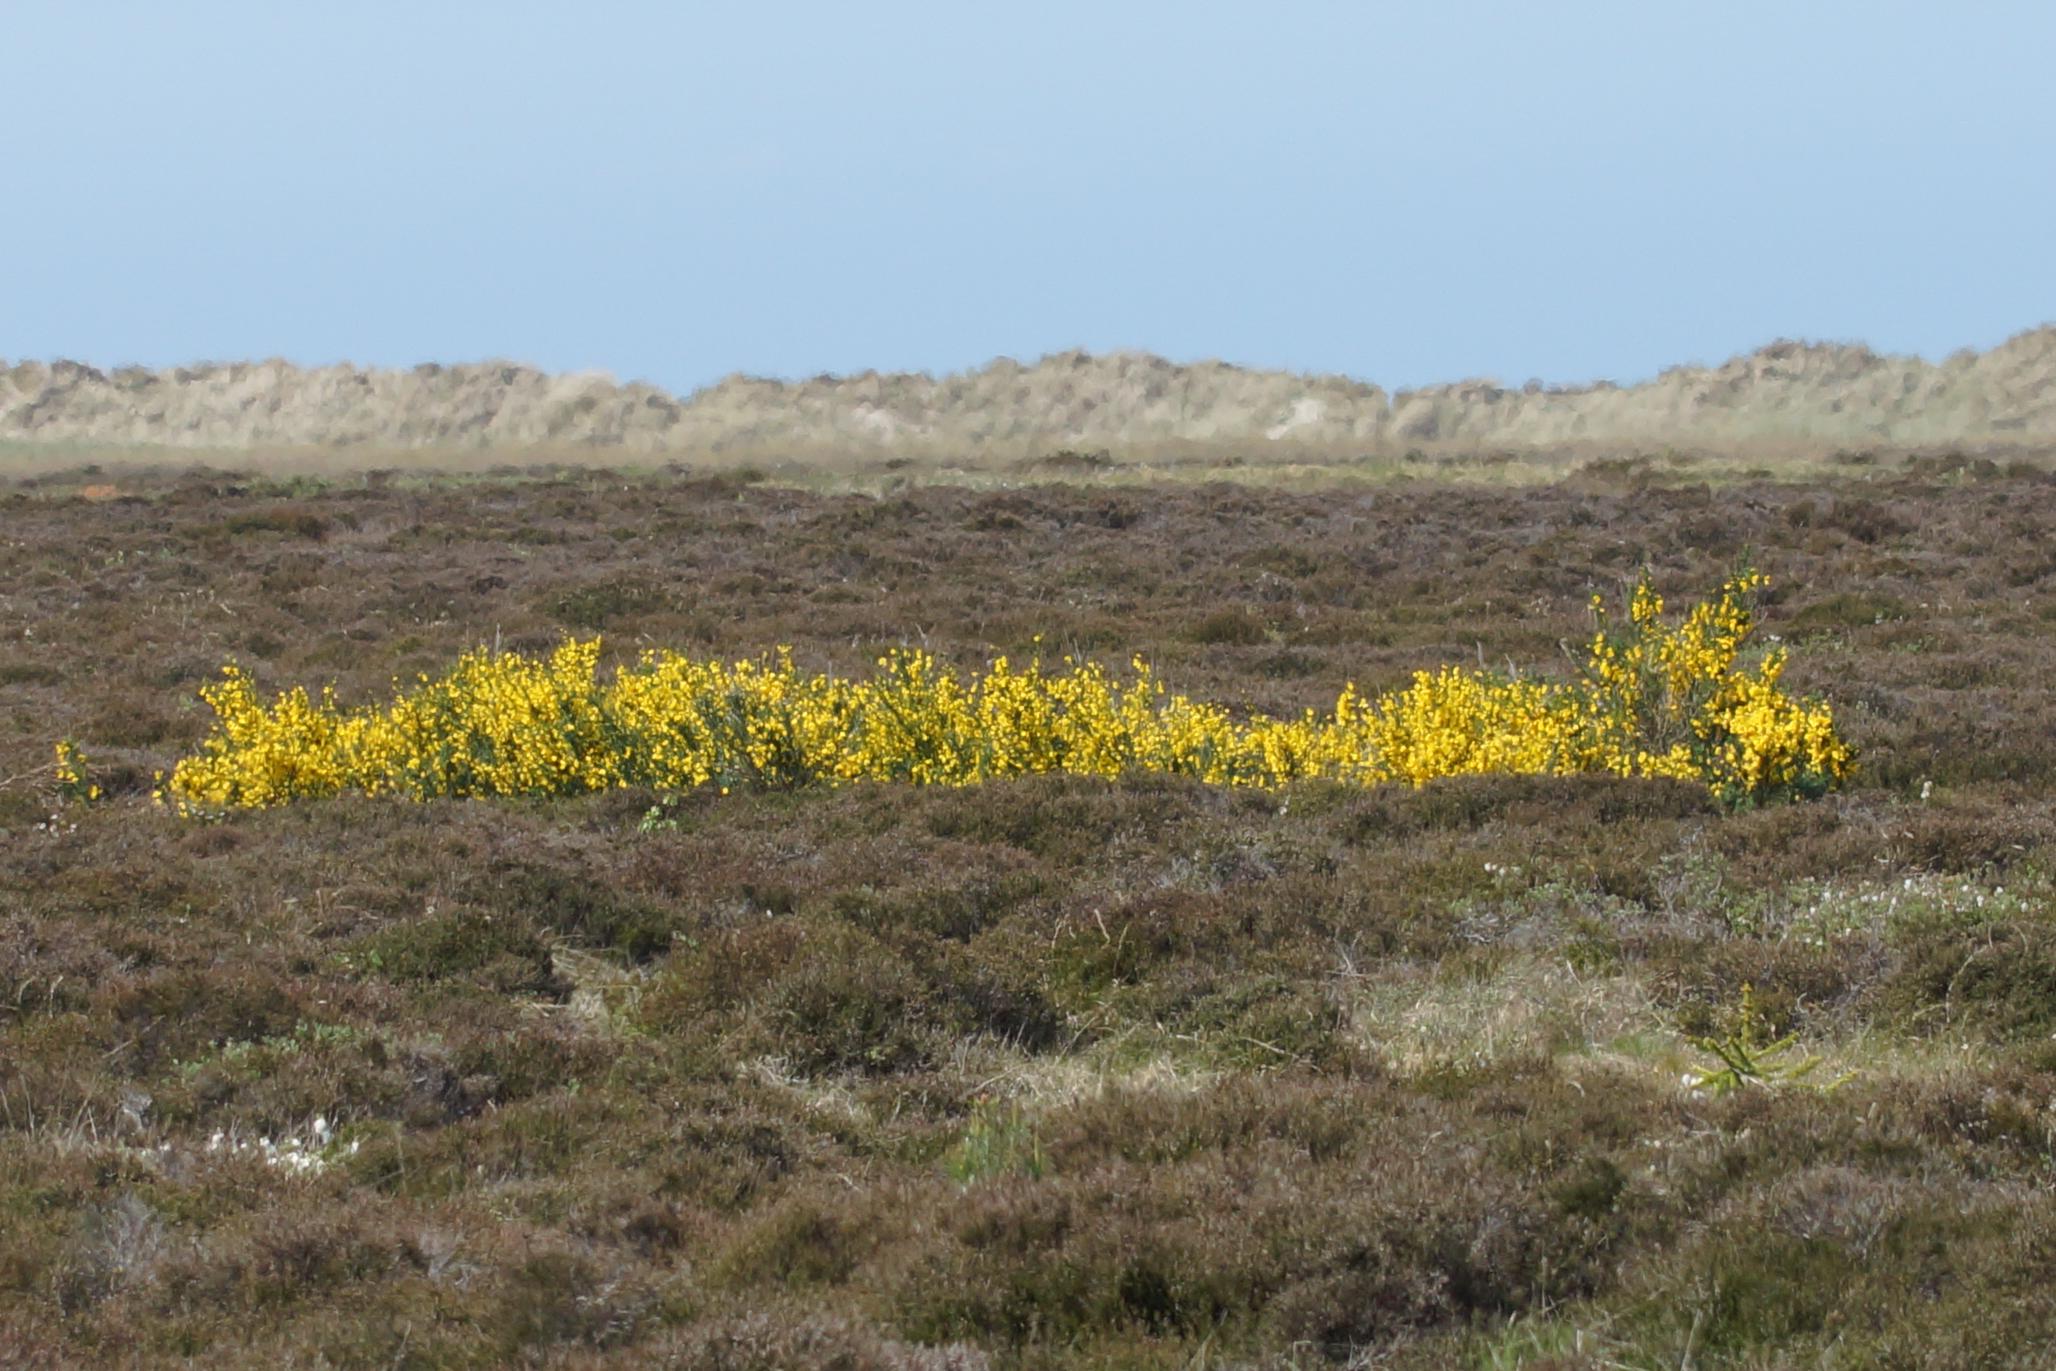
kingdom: Plantae
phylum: Tracheophyta
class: Magnoliopsida
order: Fabales
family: Fabaceae
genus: Cytisus
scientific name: Cytisus scoparius
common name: Almindelig gyvel
